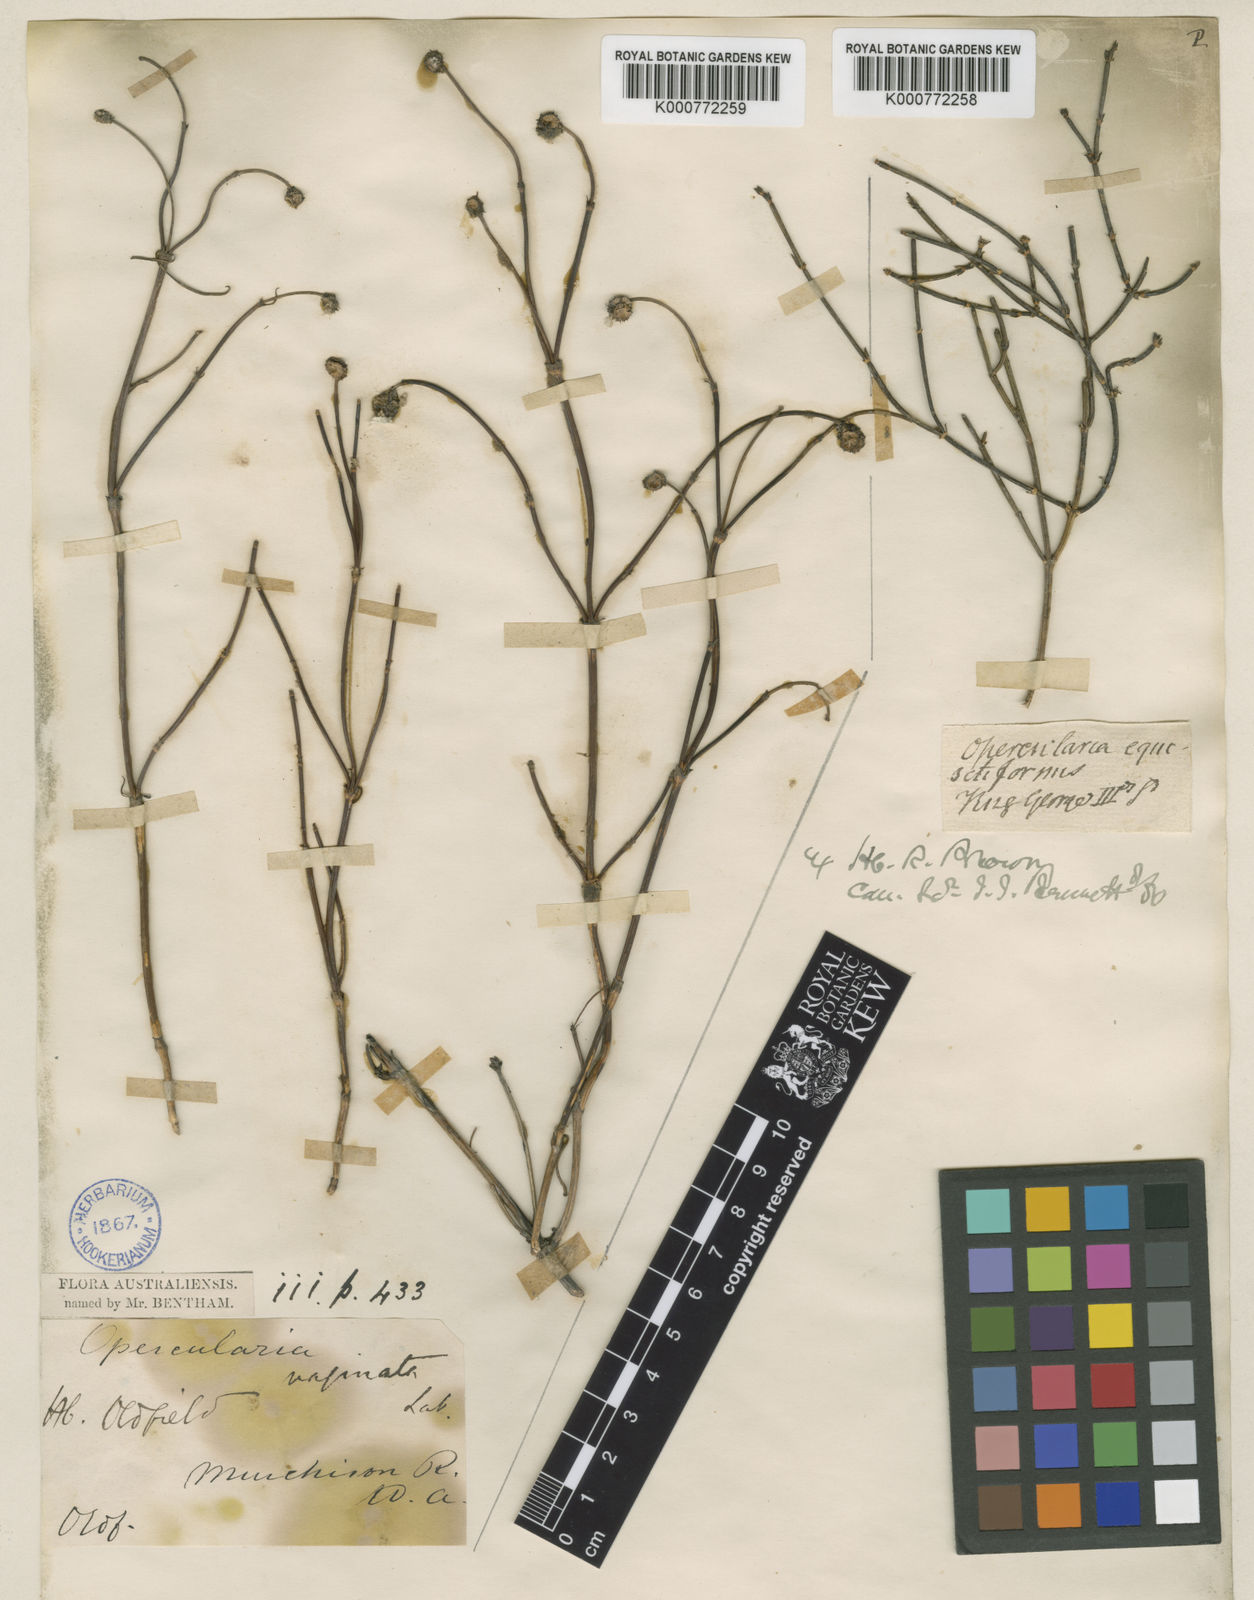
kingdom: Plantae
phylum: Tracheophyta
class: Magnoliopsida
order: Gentianales
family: Rubiaceae
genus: Opercularia
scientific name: Opercularia vaginata
